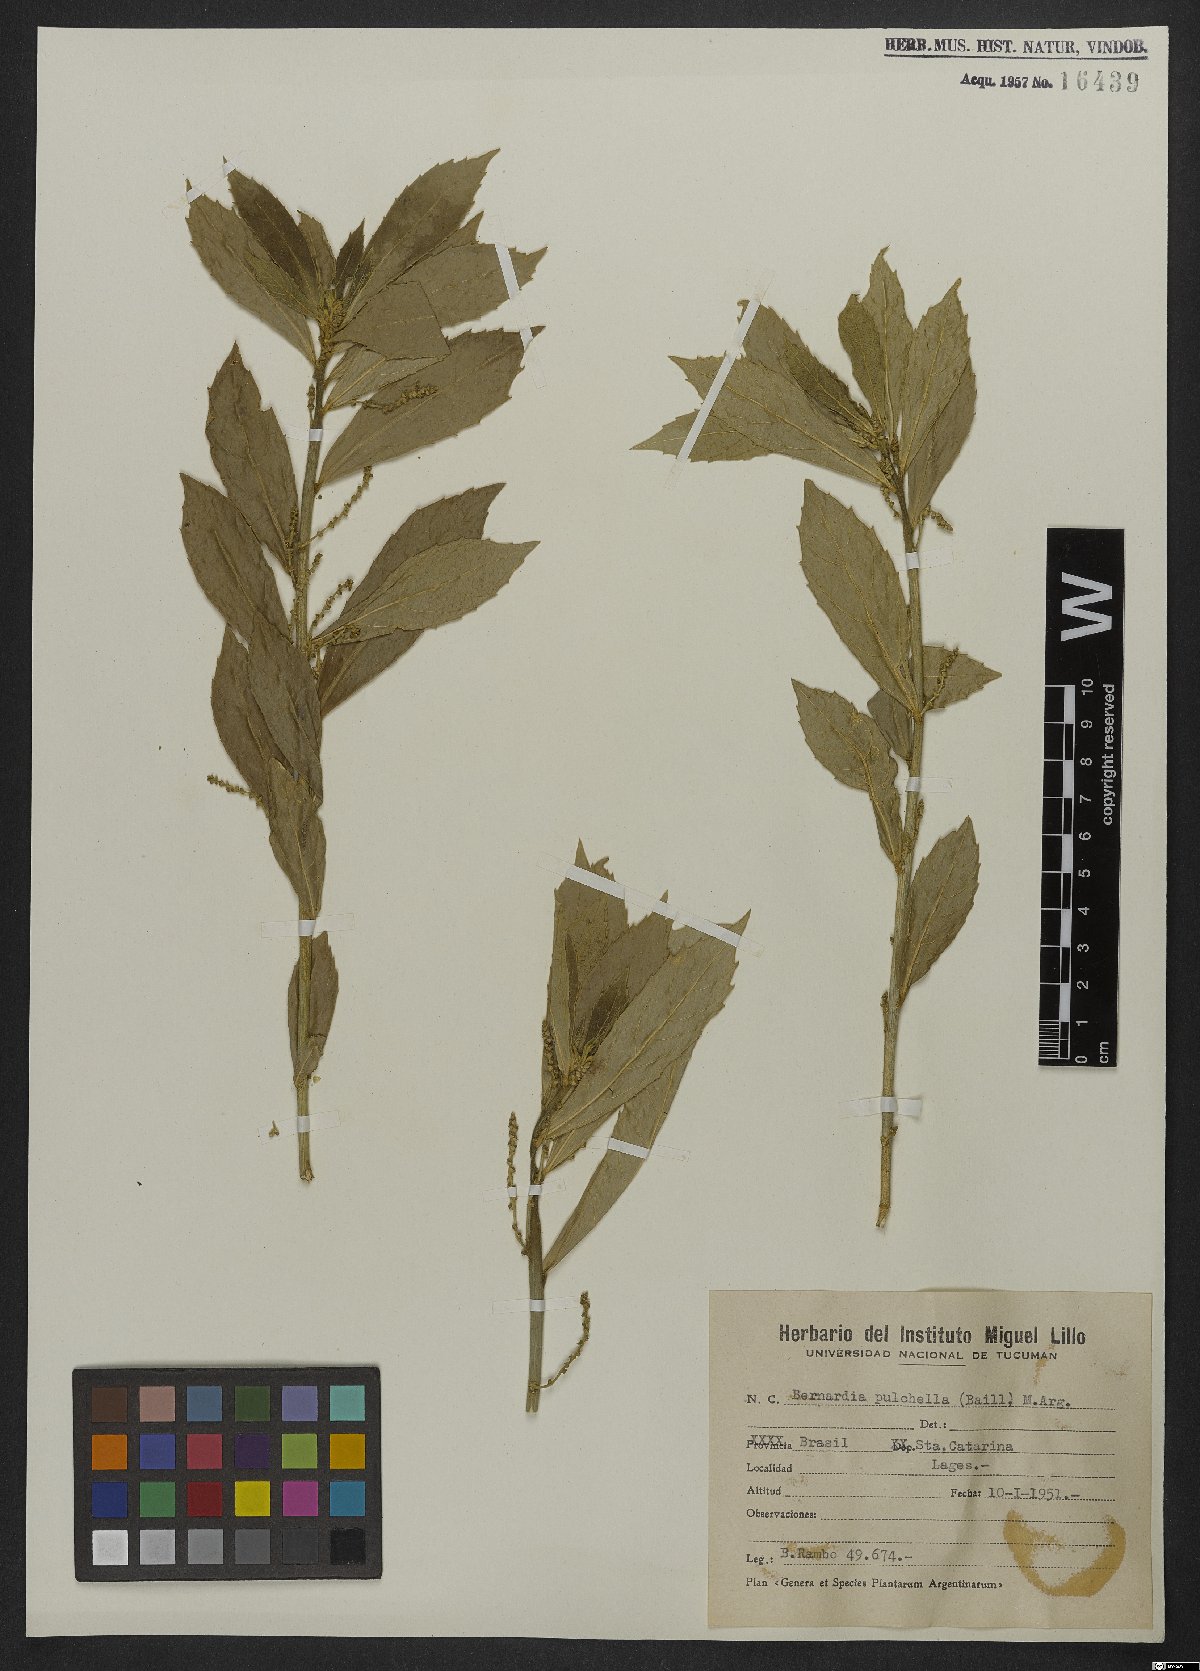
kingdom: Plantae
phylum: Tracheophyta
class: Magnoliopsida
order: Malpighiales
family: Euphorbiaceae
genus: Bernardia
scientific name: Bernardia pulchella
